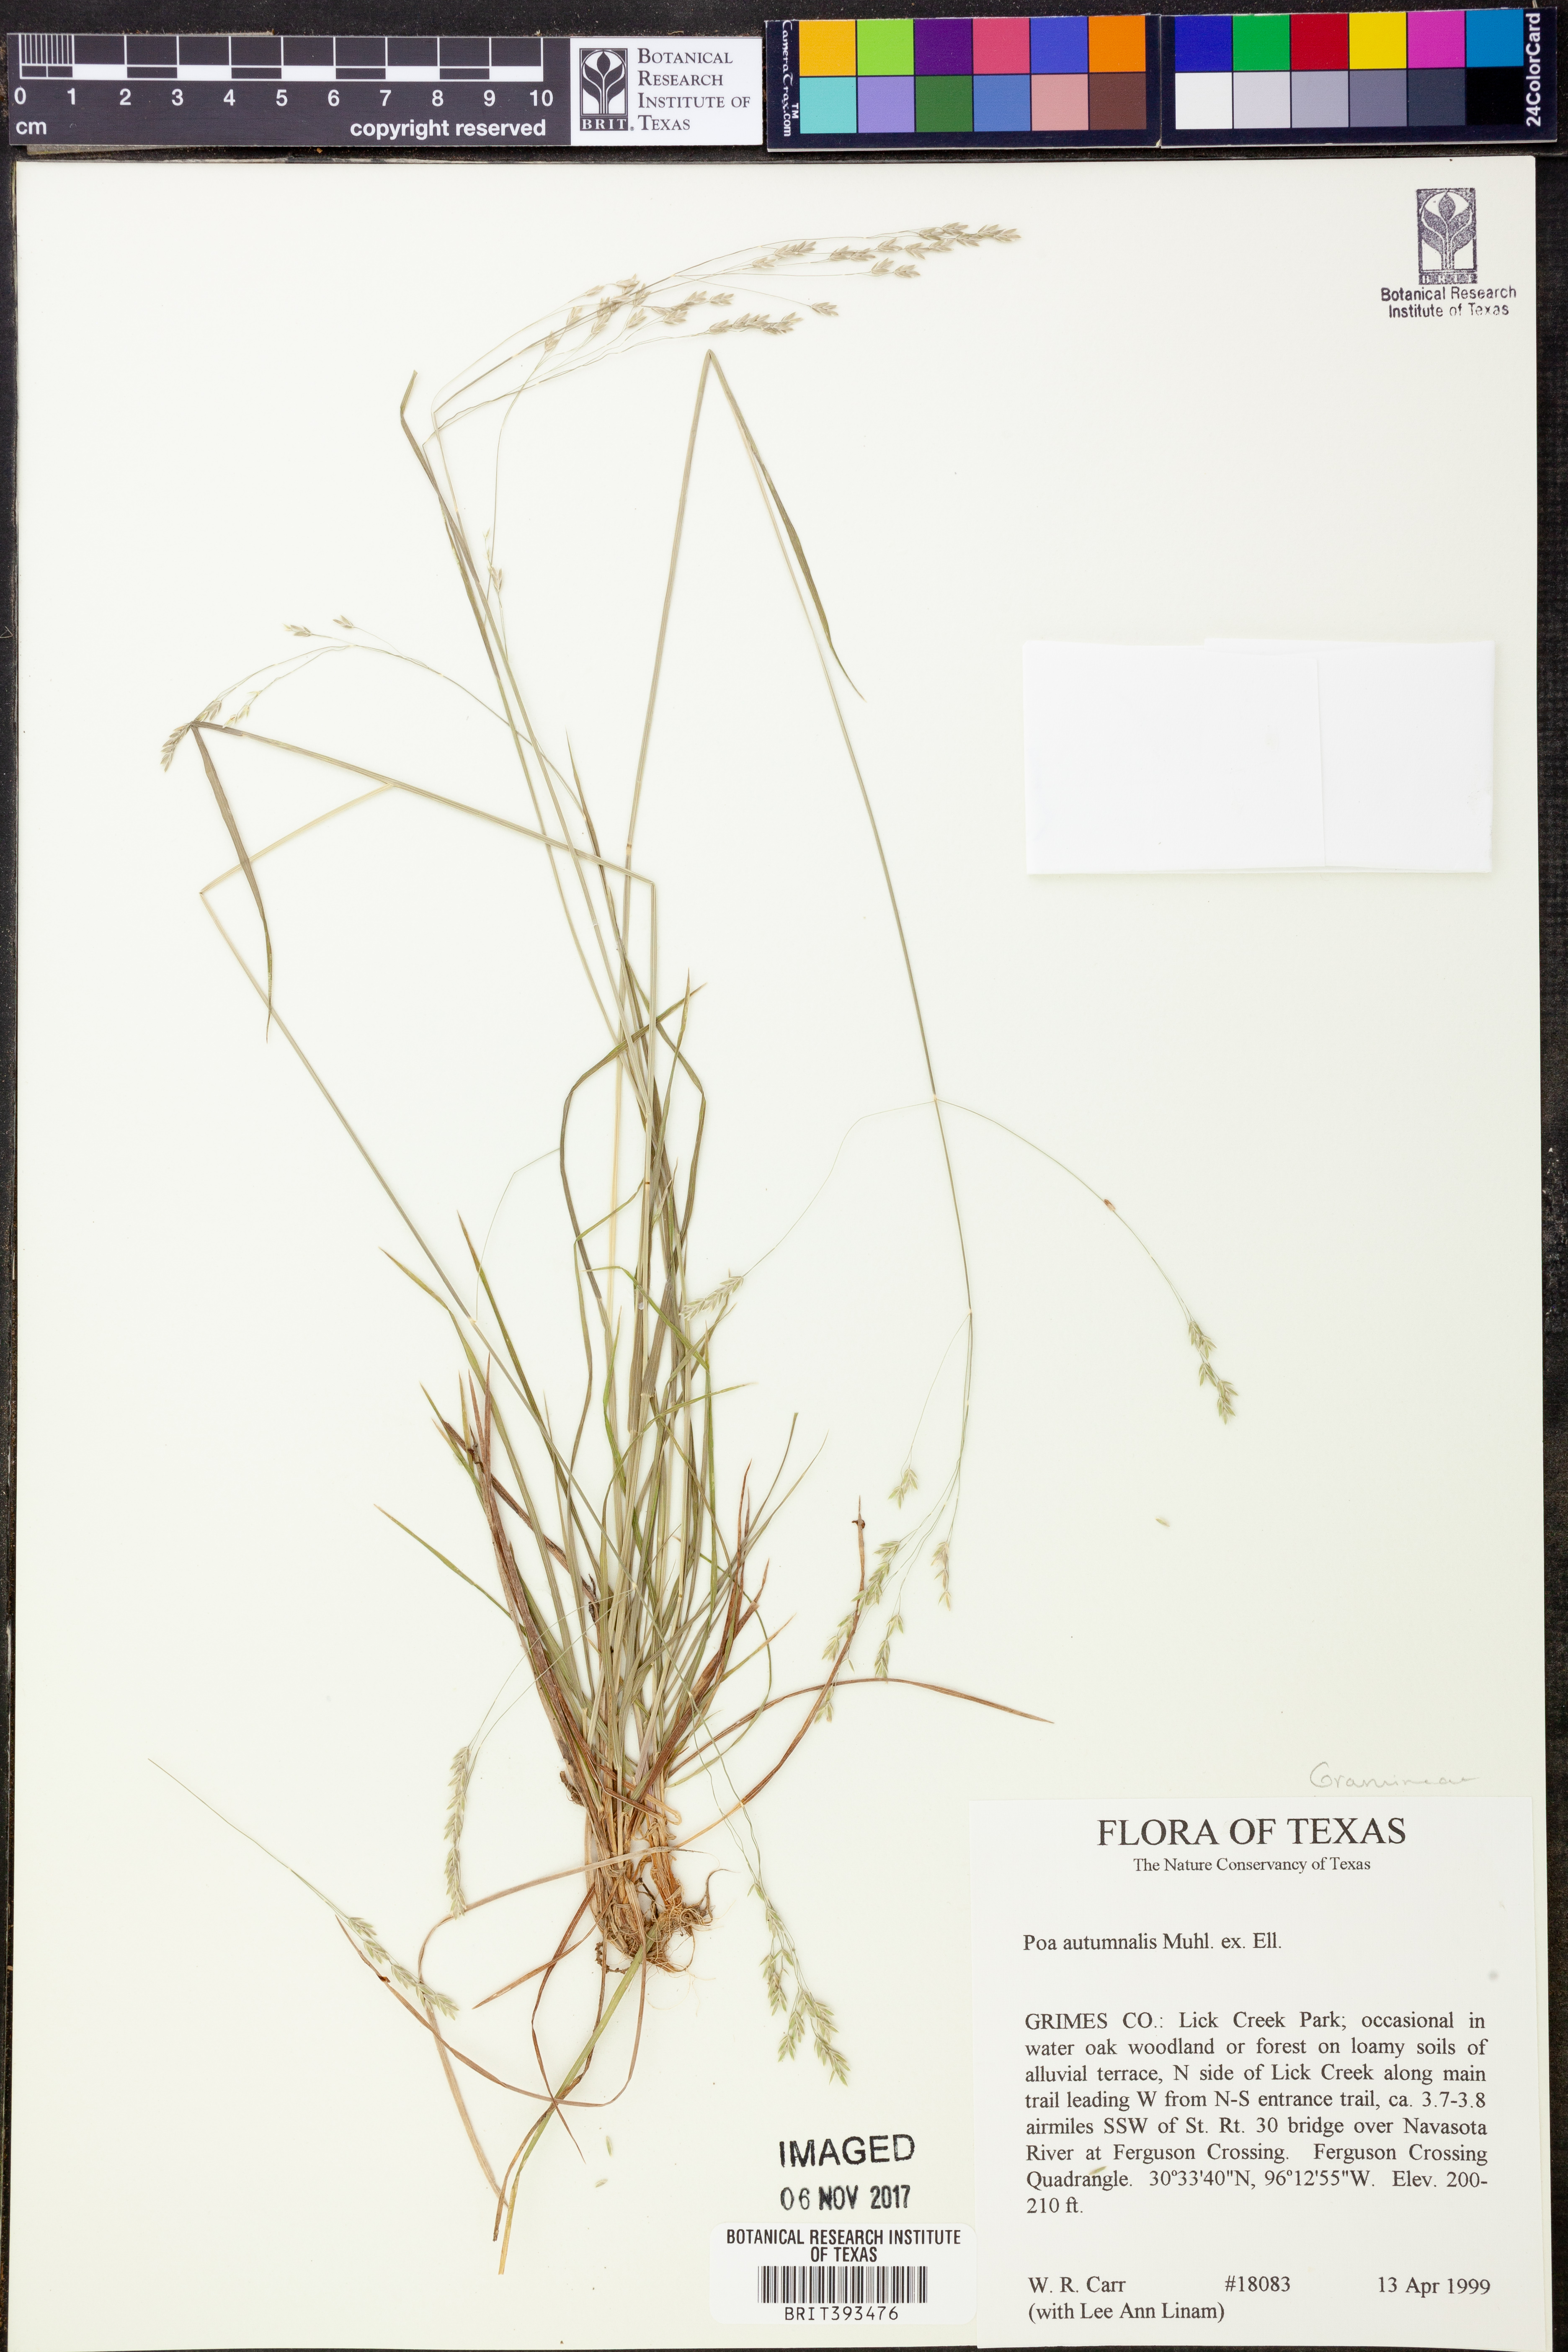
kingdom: Plantae
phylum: Tracheophyta
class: Liliopsida
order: Poales
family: Poaceae
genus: Poa
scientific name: Poa autumnalis
